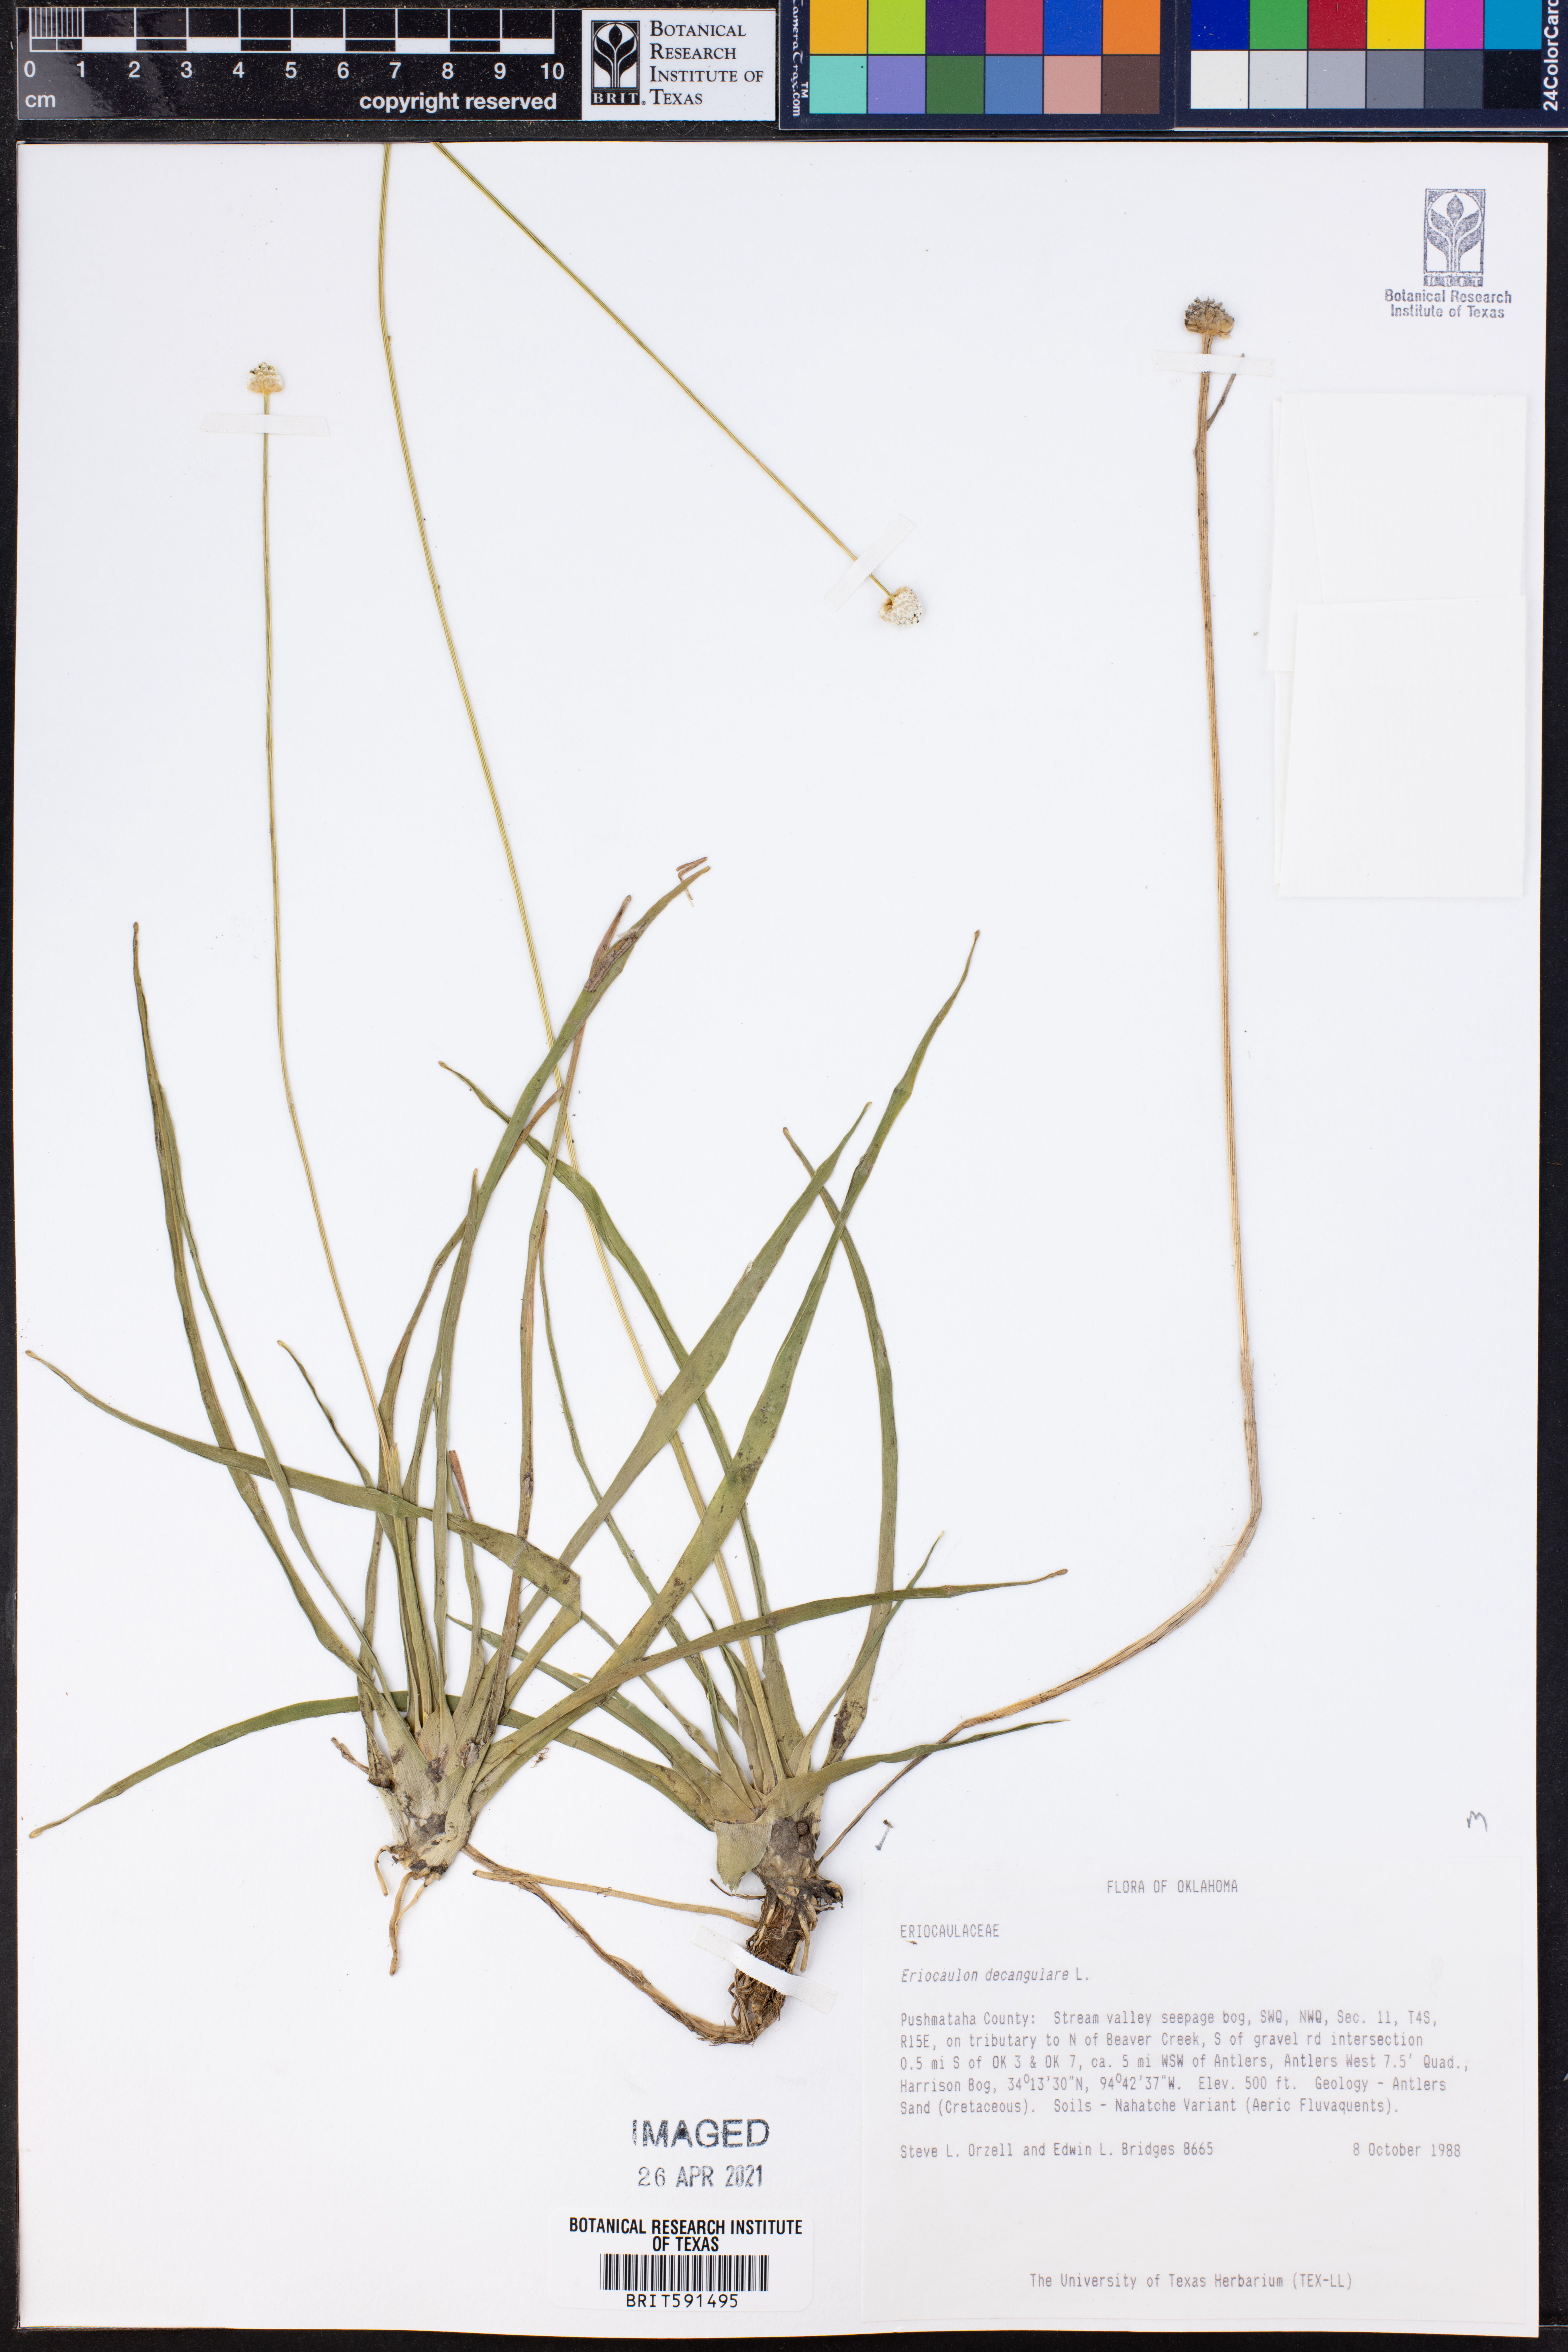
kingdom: Plantae
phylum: Tracheophyta
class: Liliopsida
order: Poales
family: Eriocaulaceae
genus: Eriocaulon
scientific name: Eriocaulon decangulare
